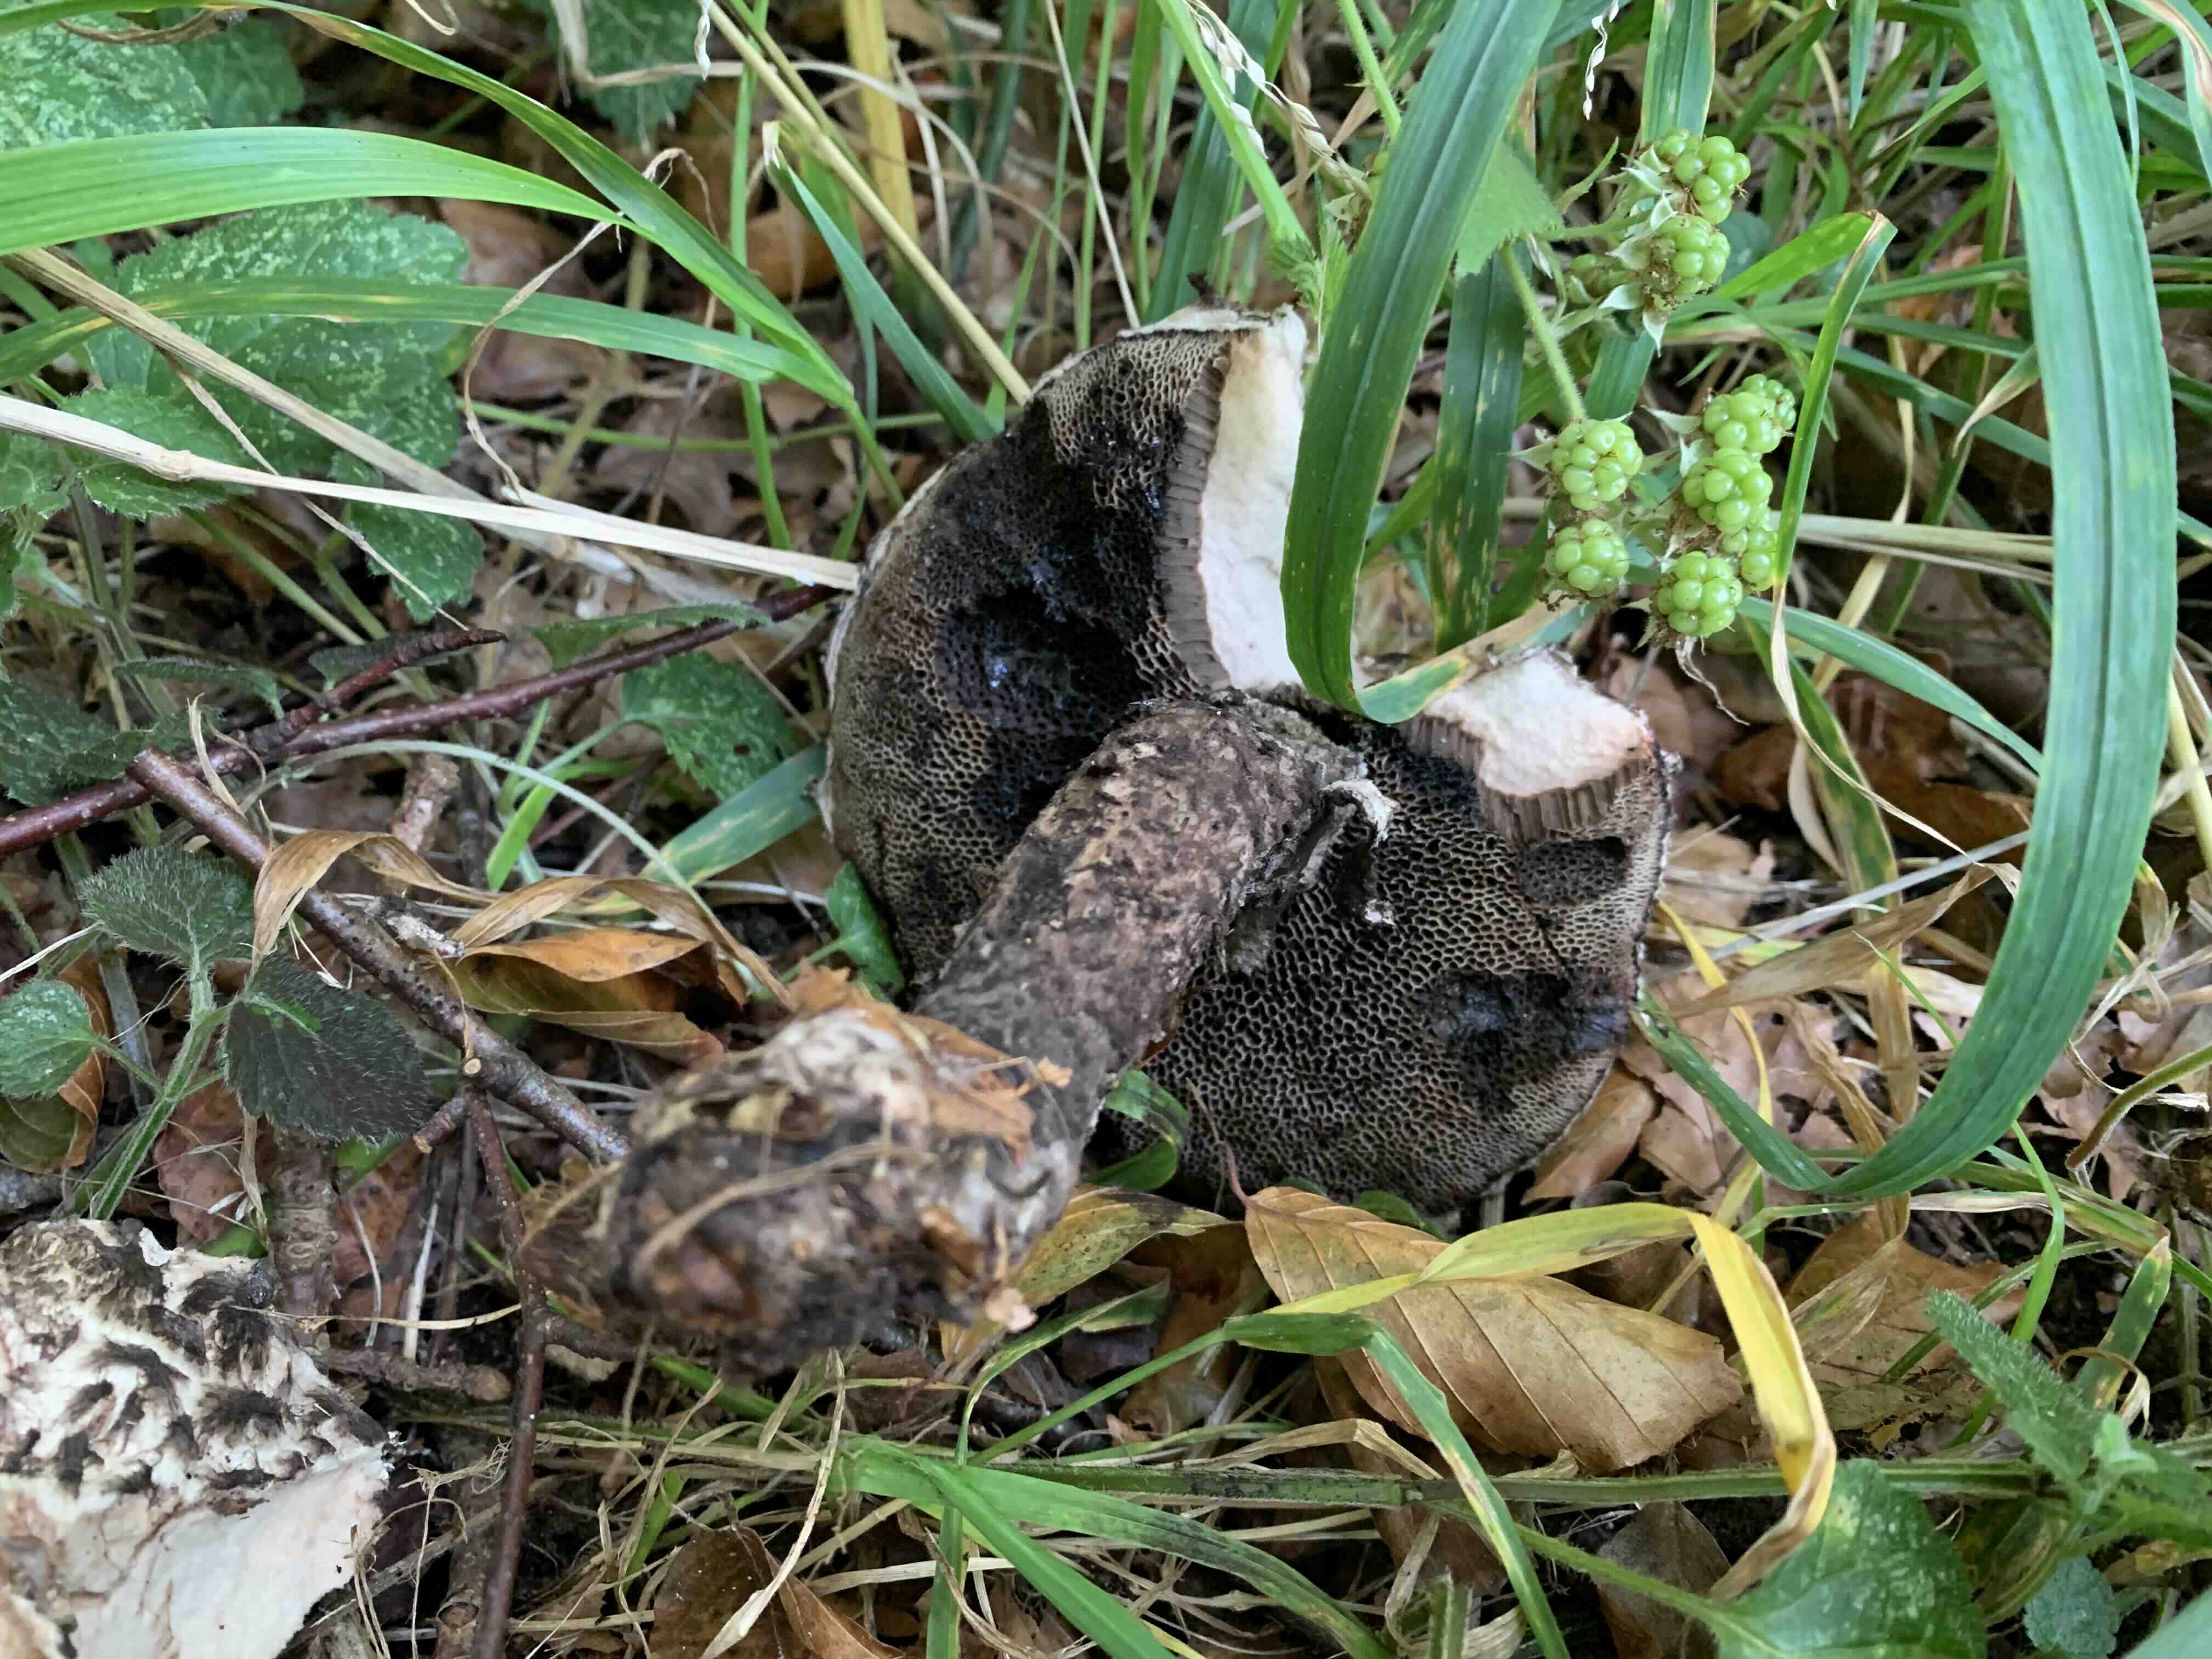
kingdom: Fungi
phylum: Basidiomycota
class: Agaricomycetes
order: Boletales
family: Boletaceae
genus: Strobilomyces
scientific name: Strobilomyces strobilaceus
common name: koglerørhat
